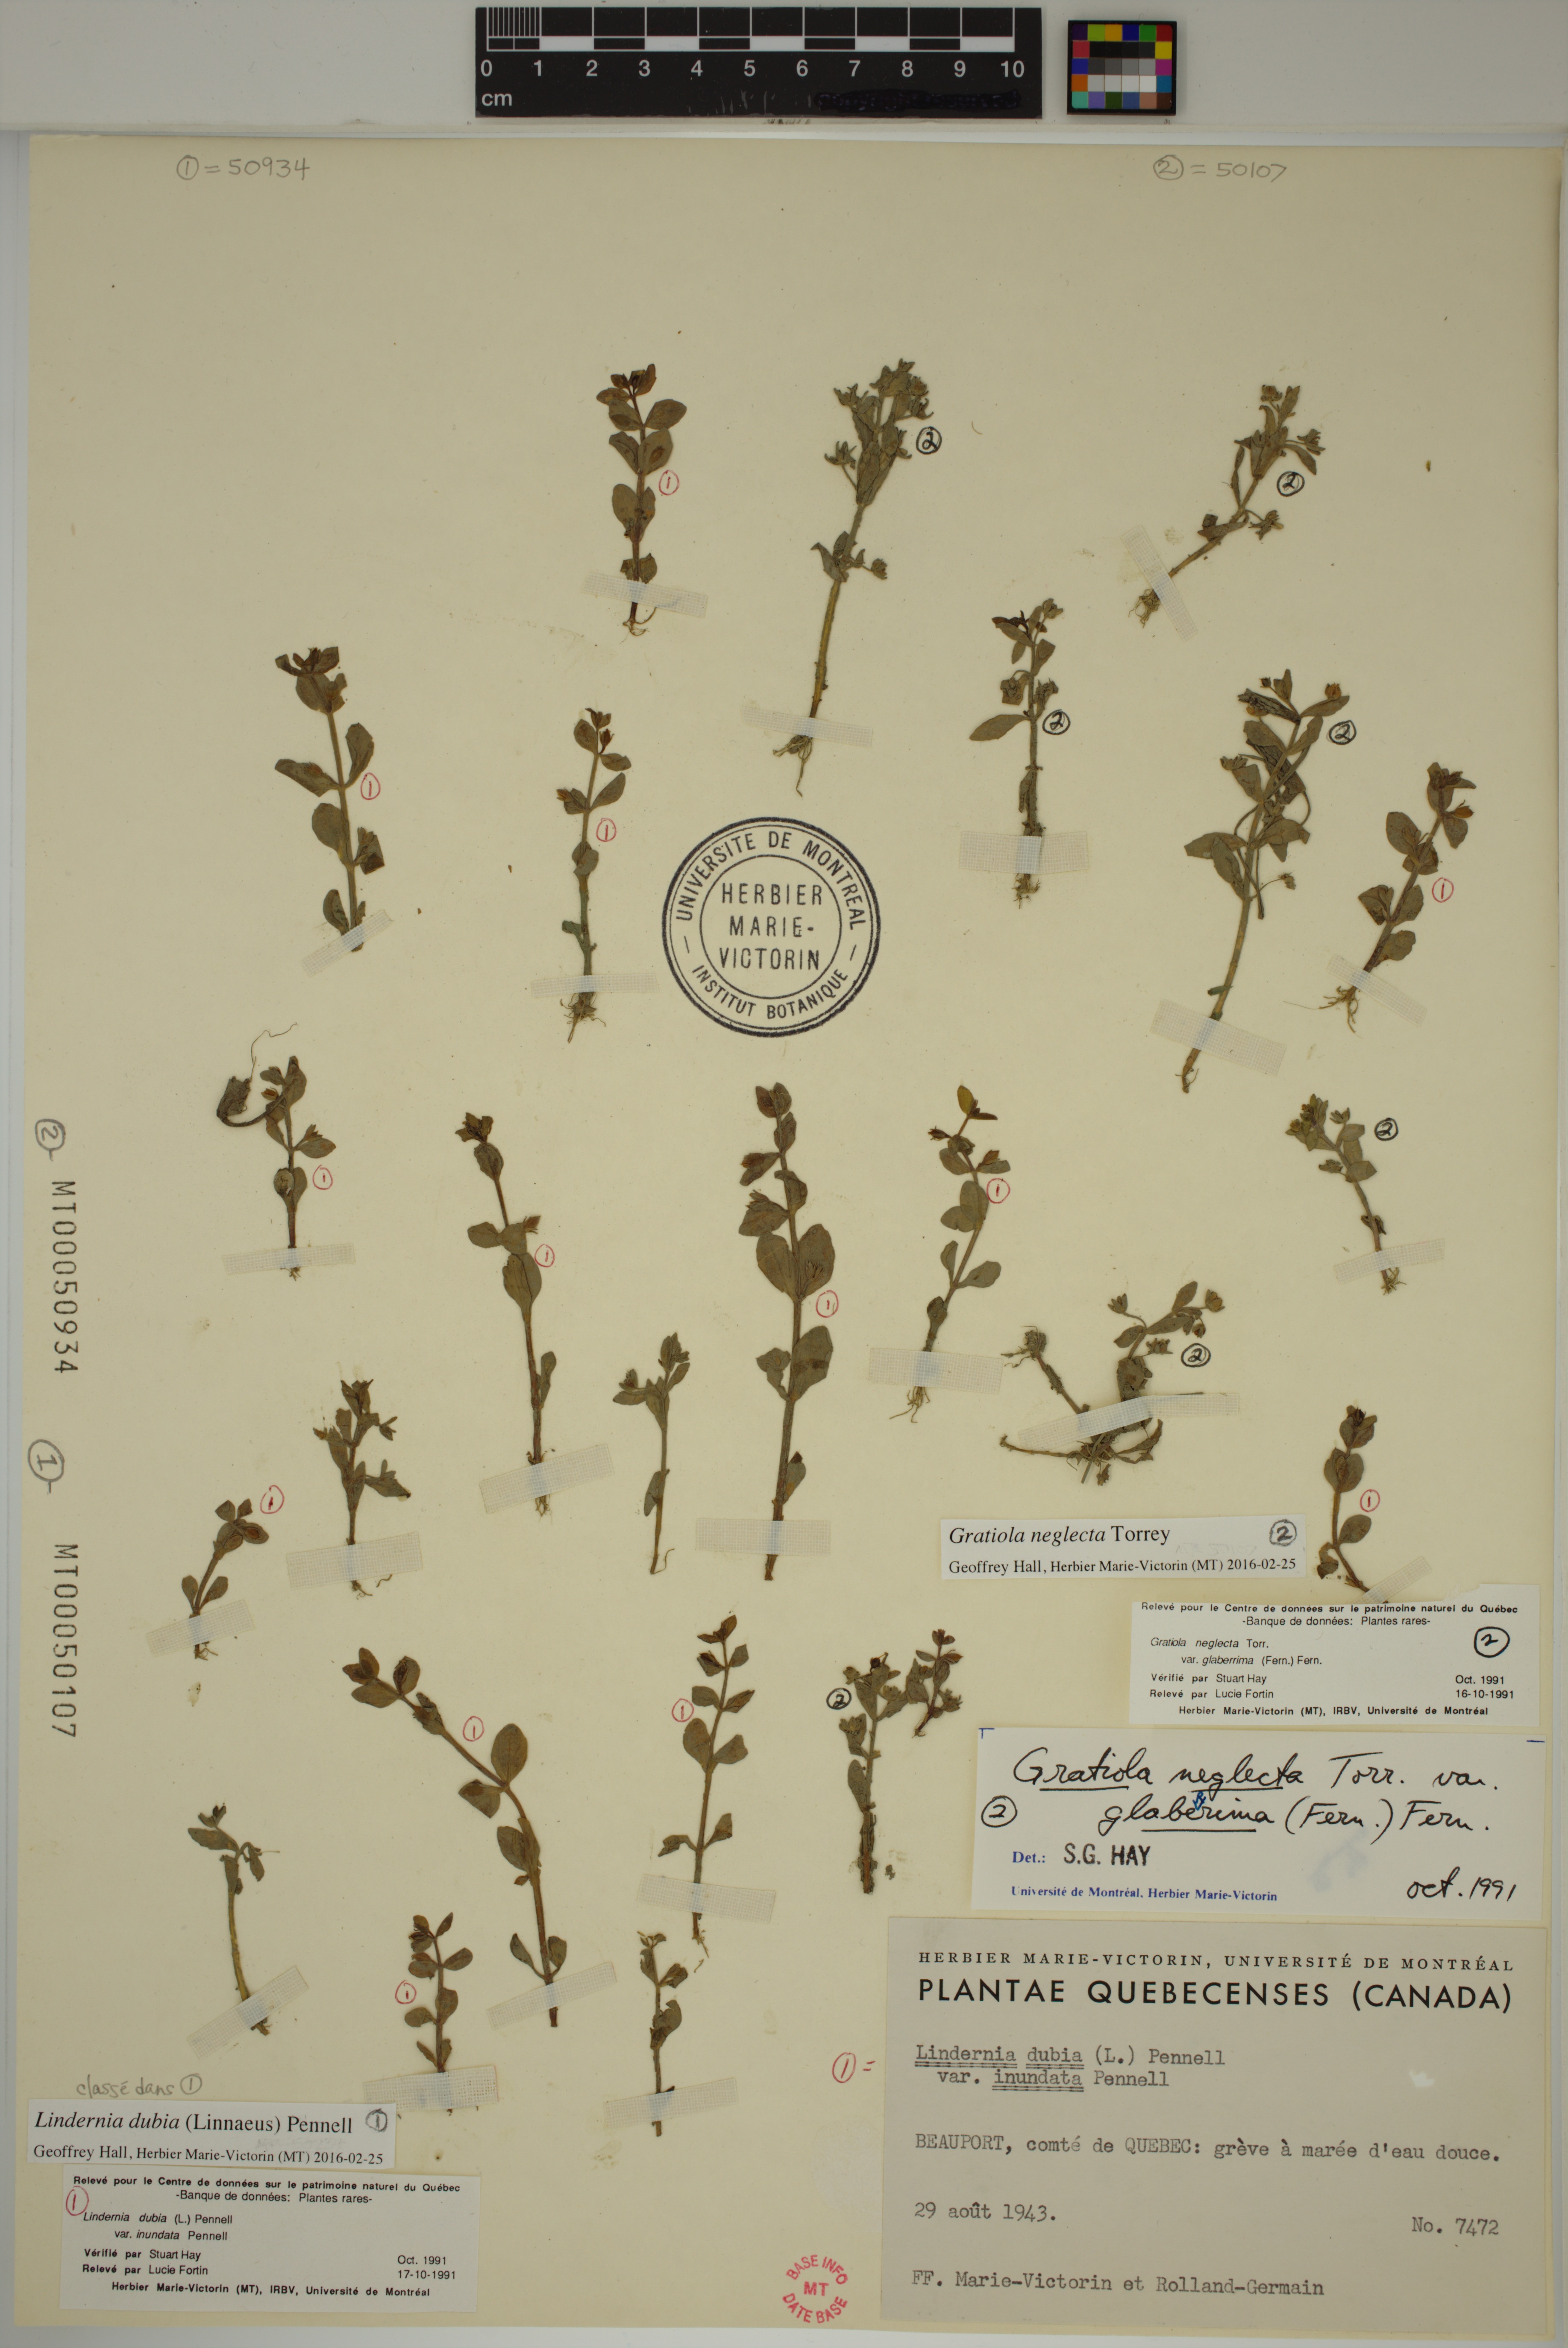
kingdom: Plantae
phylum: Tracheophyta
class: Magnoliopsida
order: Lamiales
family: Plantaginaceae
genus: Gratiola
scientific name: Gratiola neglecta
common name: American hedge-hyssop
